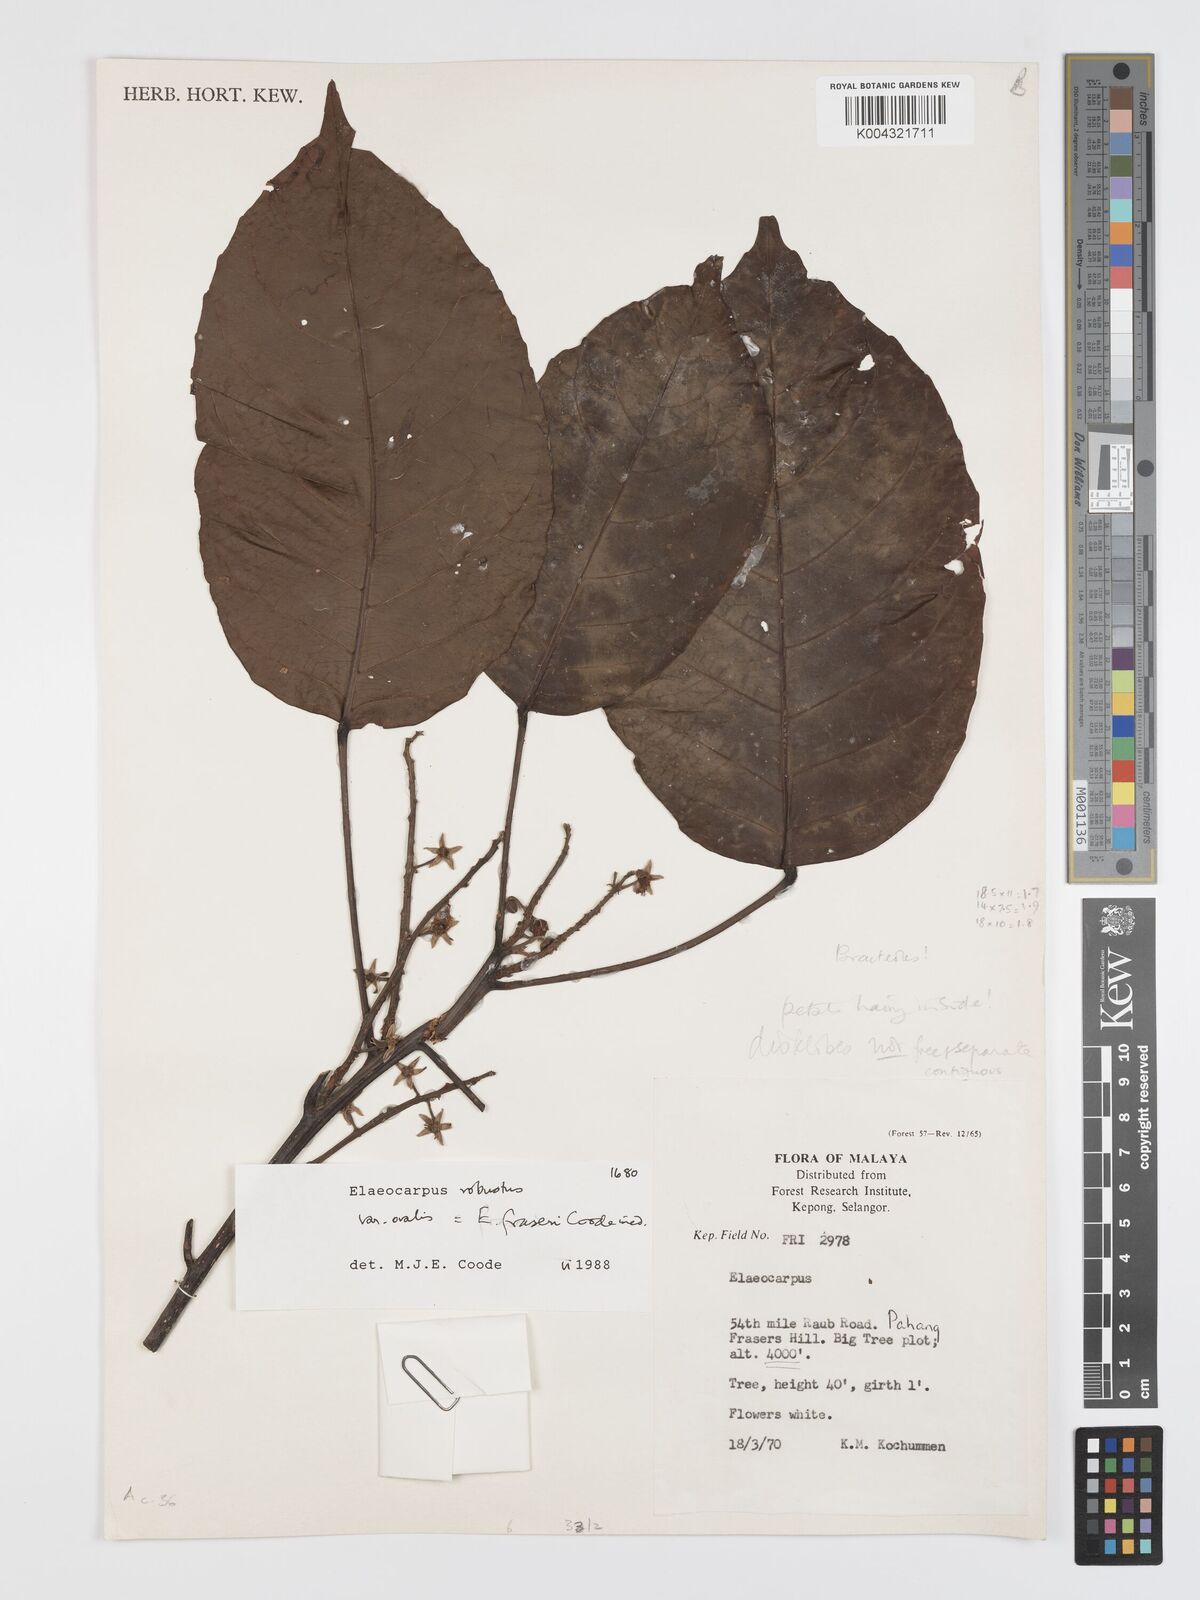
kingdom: Plantae
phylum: Tracheophyta
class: Magnoliopsida
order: Oxalidales
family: Elaeocarpaceae
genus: Elaeocarpus
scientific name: Elaeocarpus robustus
